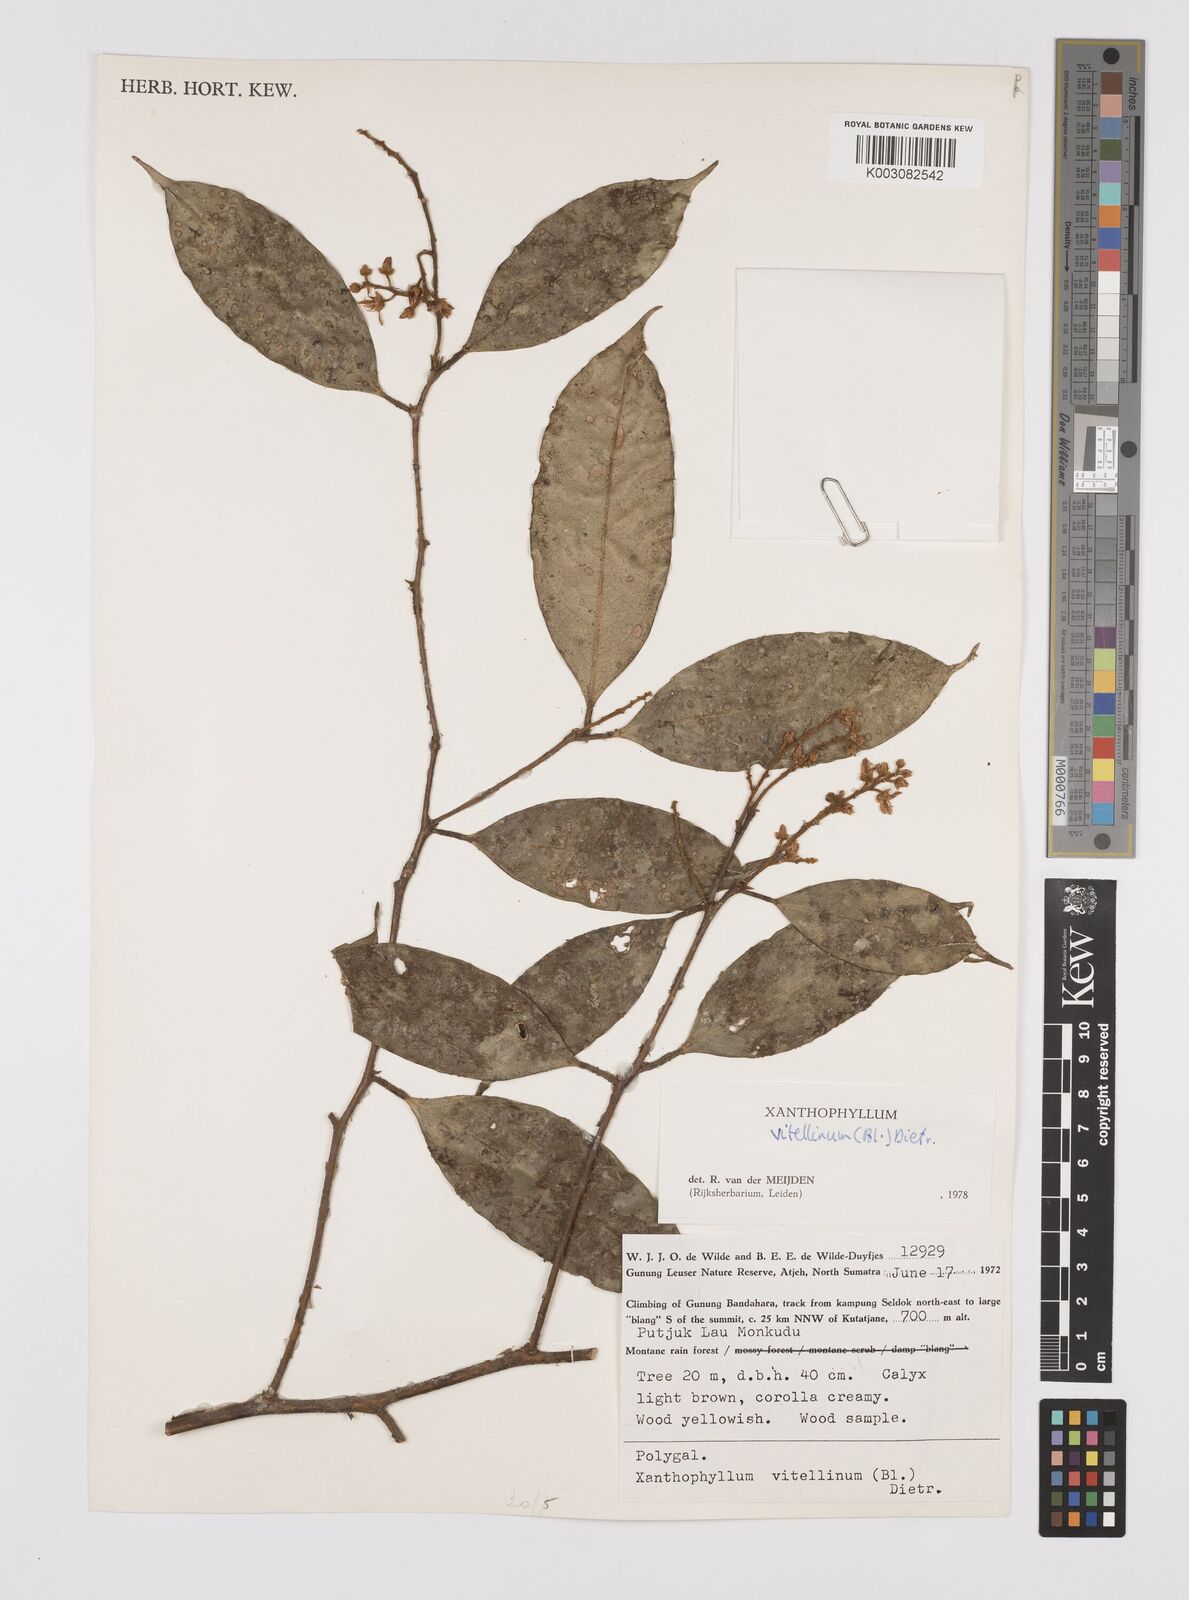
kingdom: Plantae
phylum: Tracheophyta
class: Magnoliopsida
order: Fabales
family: Polygalaceae
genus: Xanthophyllum
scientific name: Xanthophyllum vitellinum
